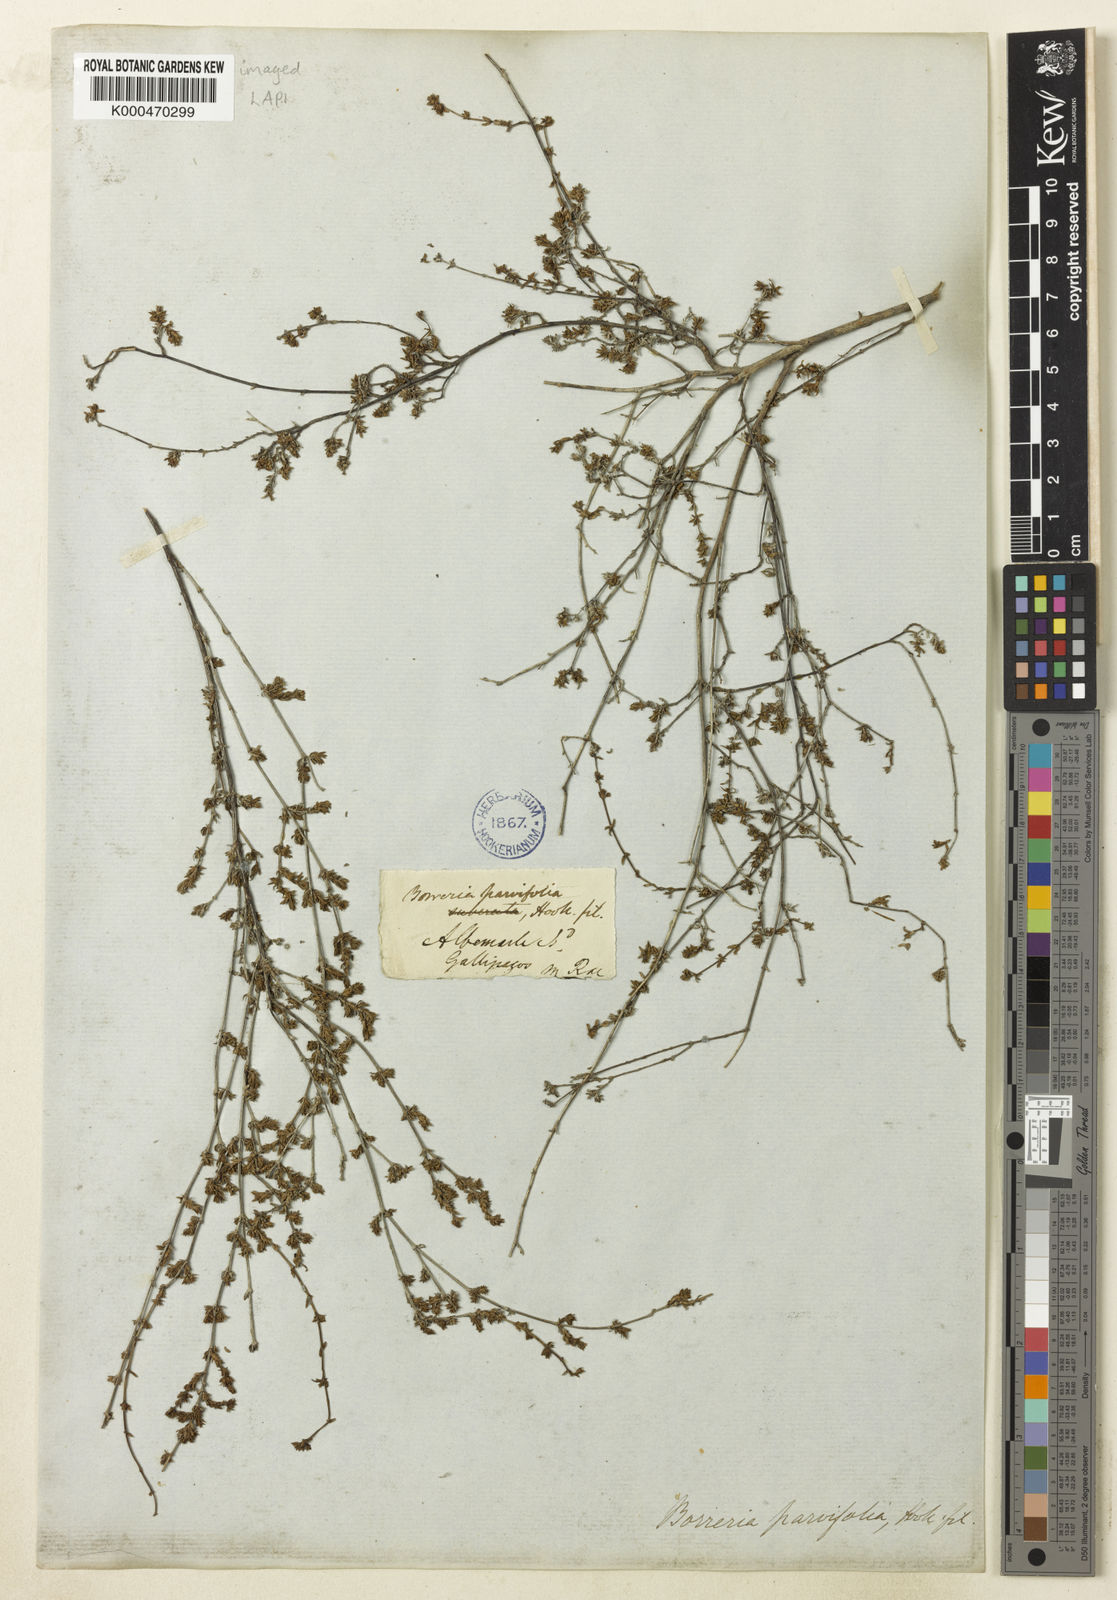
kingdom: Plantae
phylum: Tracheophyta
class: Magnoliopsida
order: Gentianales
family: Rubiaceae
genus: Spermacoce
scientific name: Spermacoce divaricata
